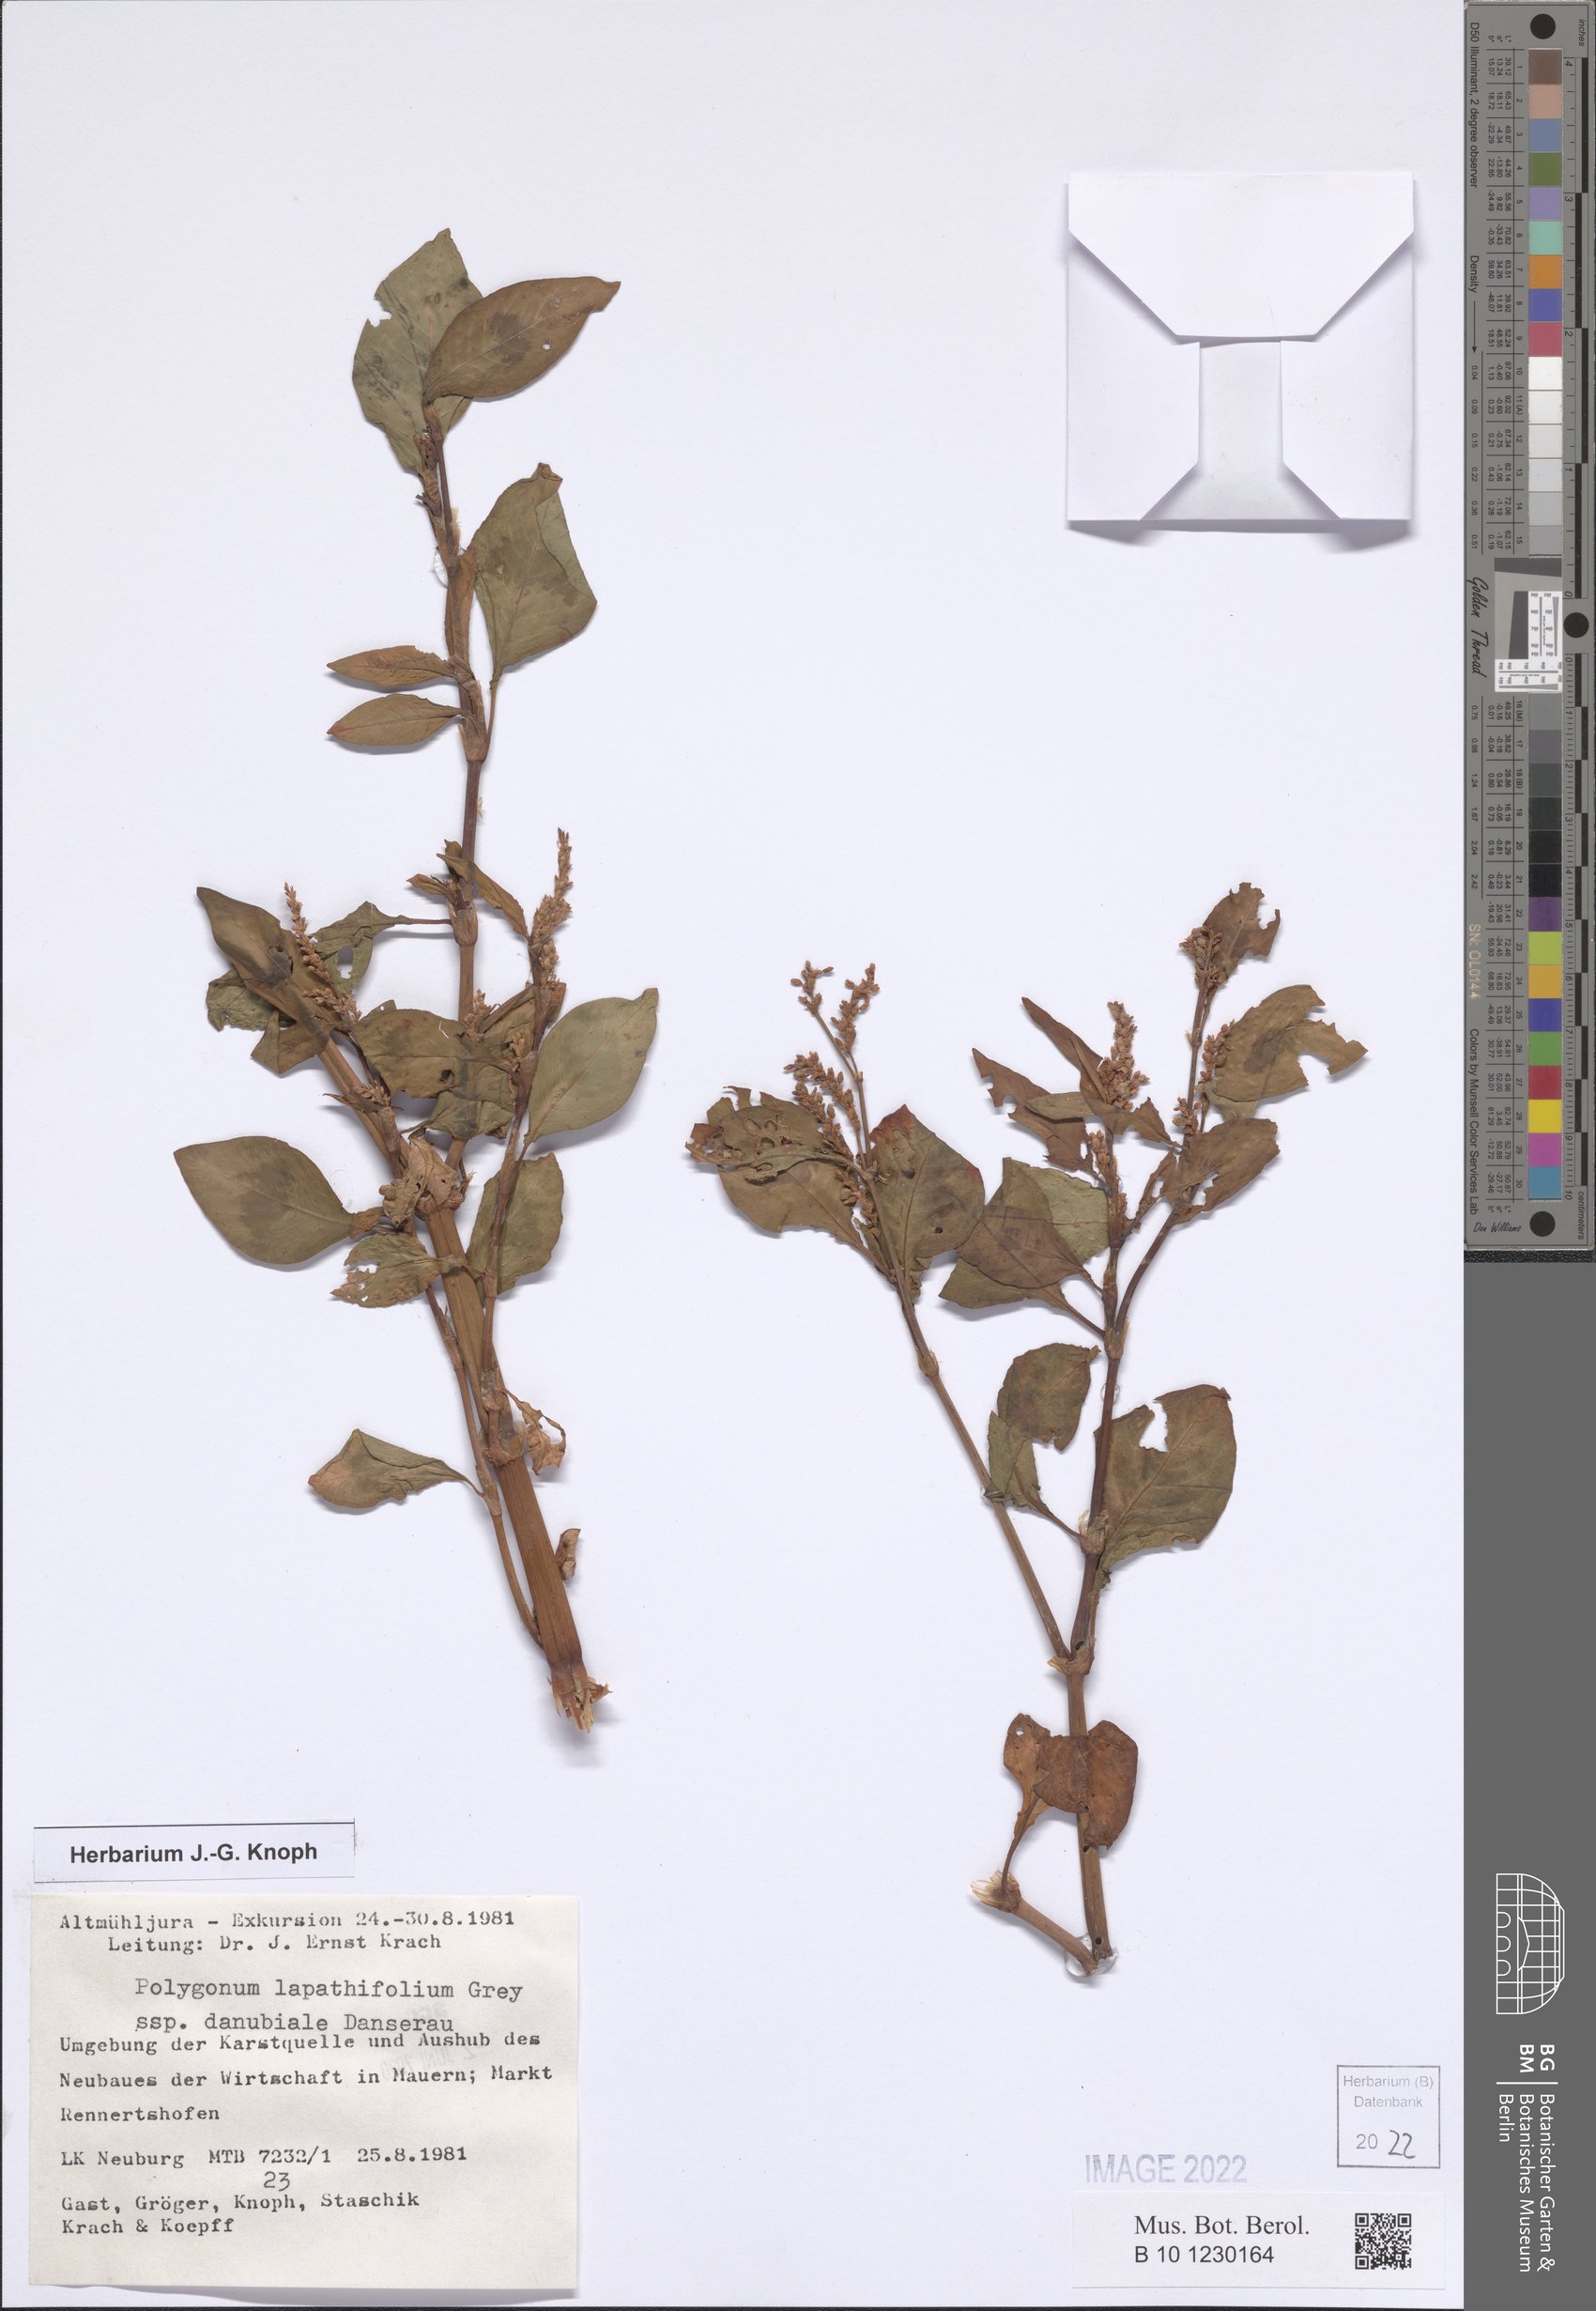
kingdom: Plantae
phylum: Tracheophyta
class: Magnoliopsida
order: Caryophyllales
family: Polygonaceae
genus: Persicaria
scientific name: Persicaria lapathifolia
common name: Curlytop knotweed
